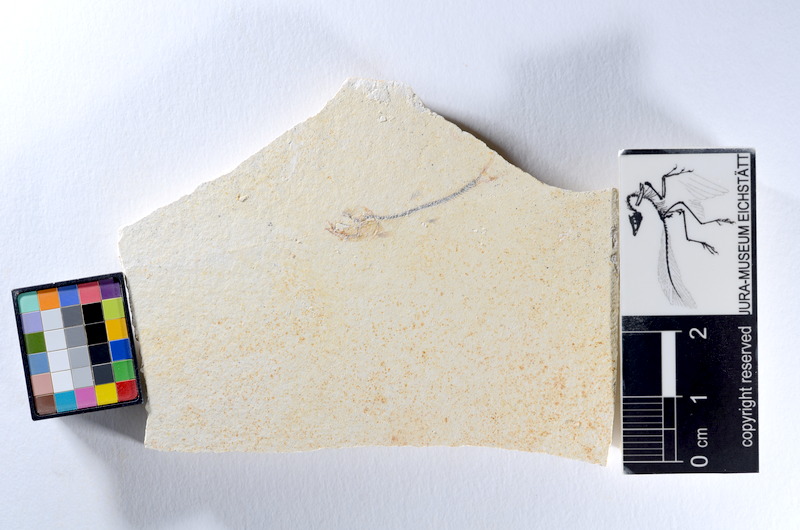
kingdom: Animalia
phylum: Chordata
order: Salmoniformes
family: Orthogonikleithridae
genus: Orthogonikleithrus
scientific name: Orthogonikleithrus hoelli
